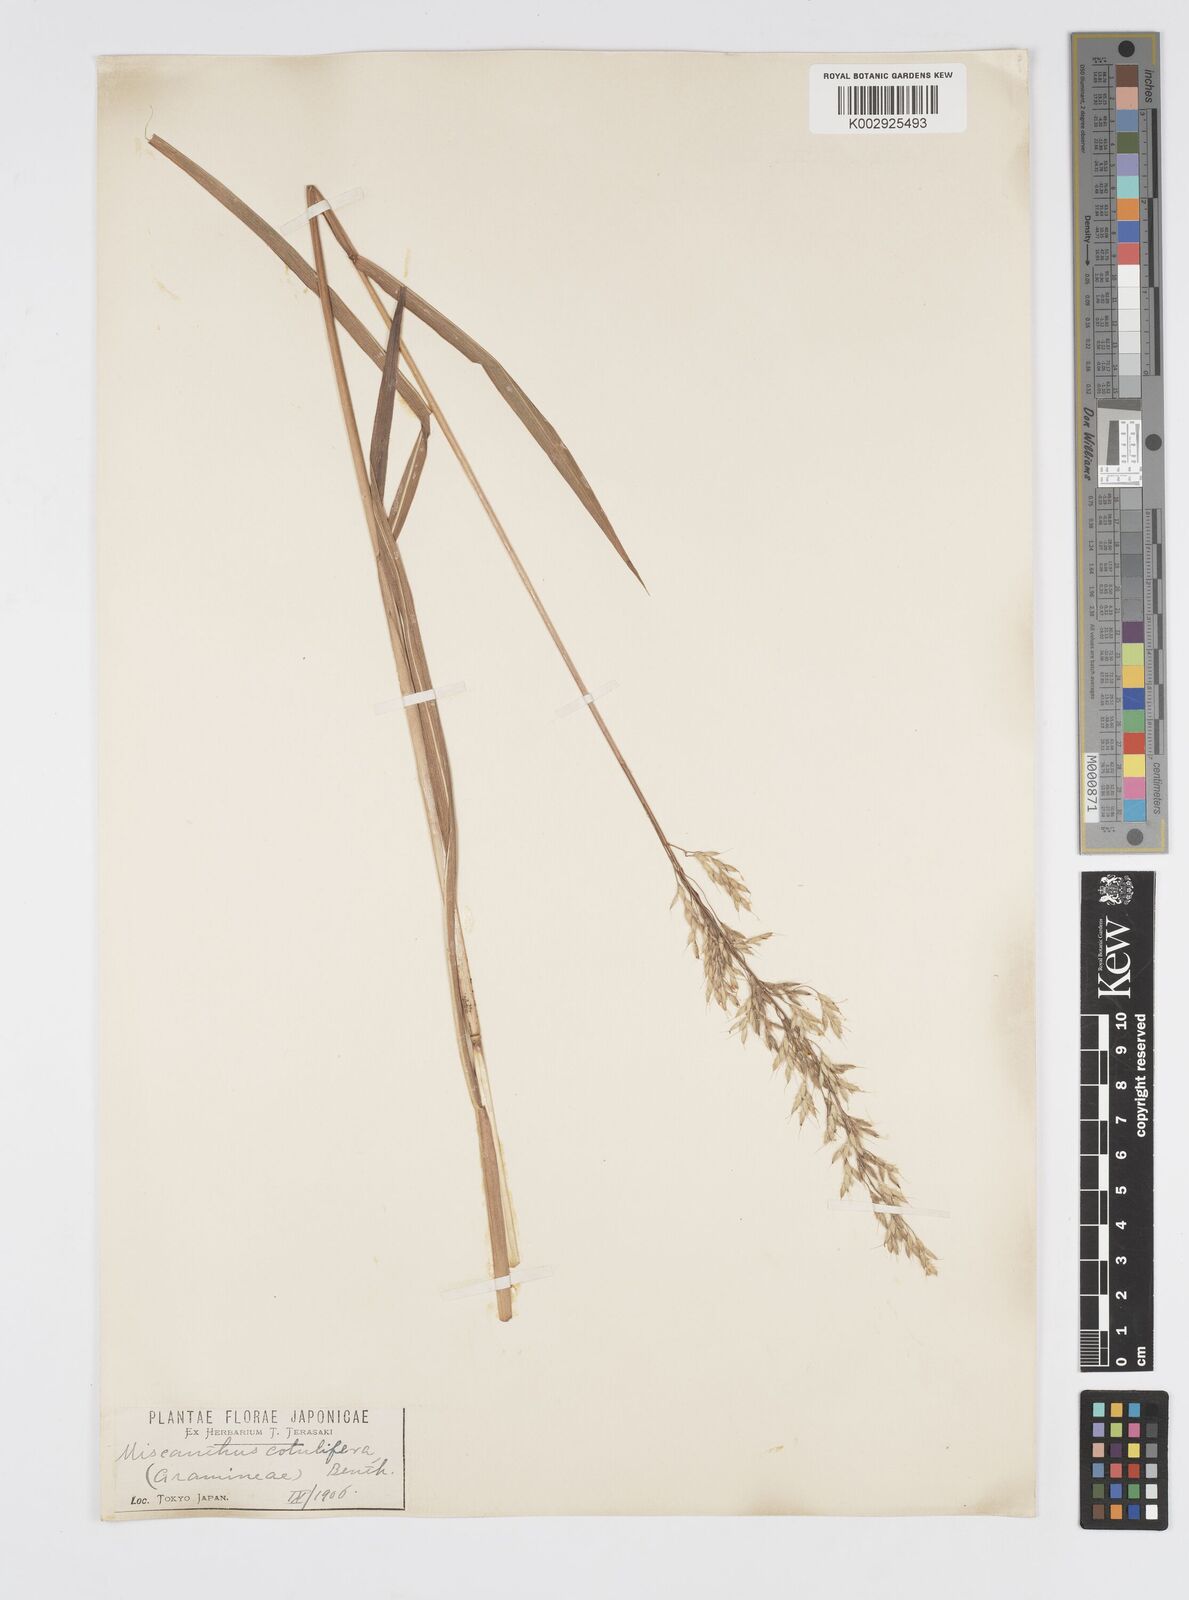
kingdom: Plantae
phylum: Tracheophyta
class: Liliopsida
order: Poales
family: Poaceae
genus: Spodiopogon
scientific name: Spodiopogon sibiricus
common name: Siberian graybeard
